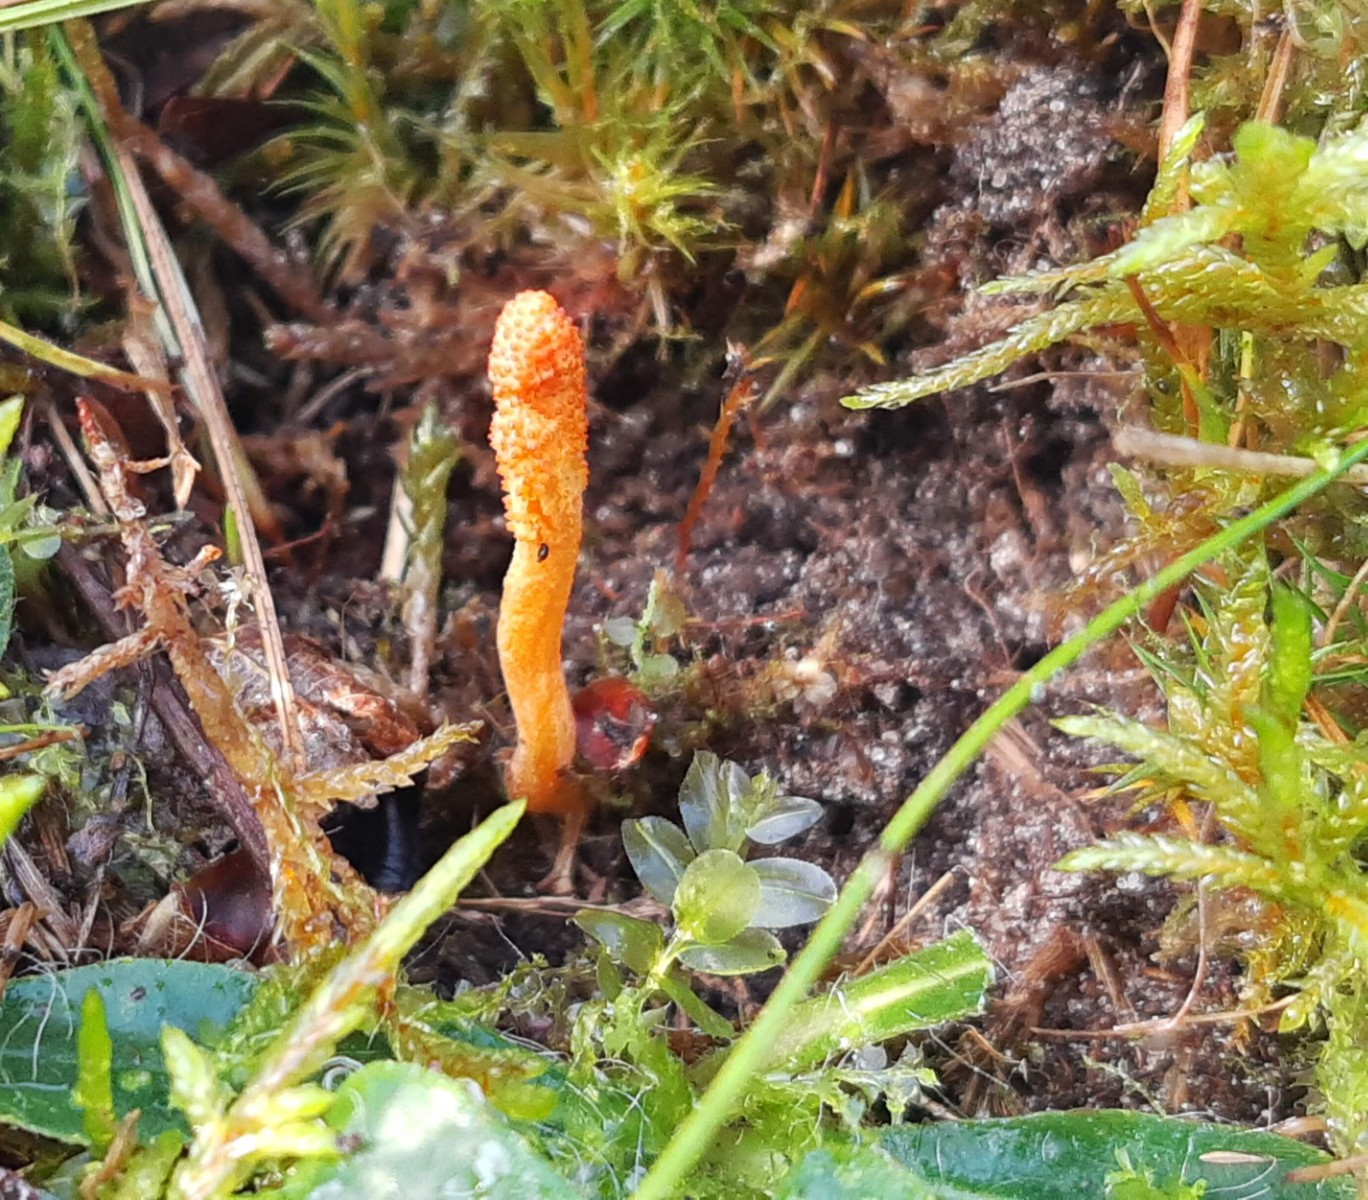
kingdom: Fungi
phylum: Ascomycota
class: Sordariomycetes
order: Hypocreales
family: Cordycipitaceae
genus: Cordyceps
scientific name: Cordyceps militaris
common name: puppe-snyltekølle
